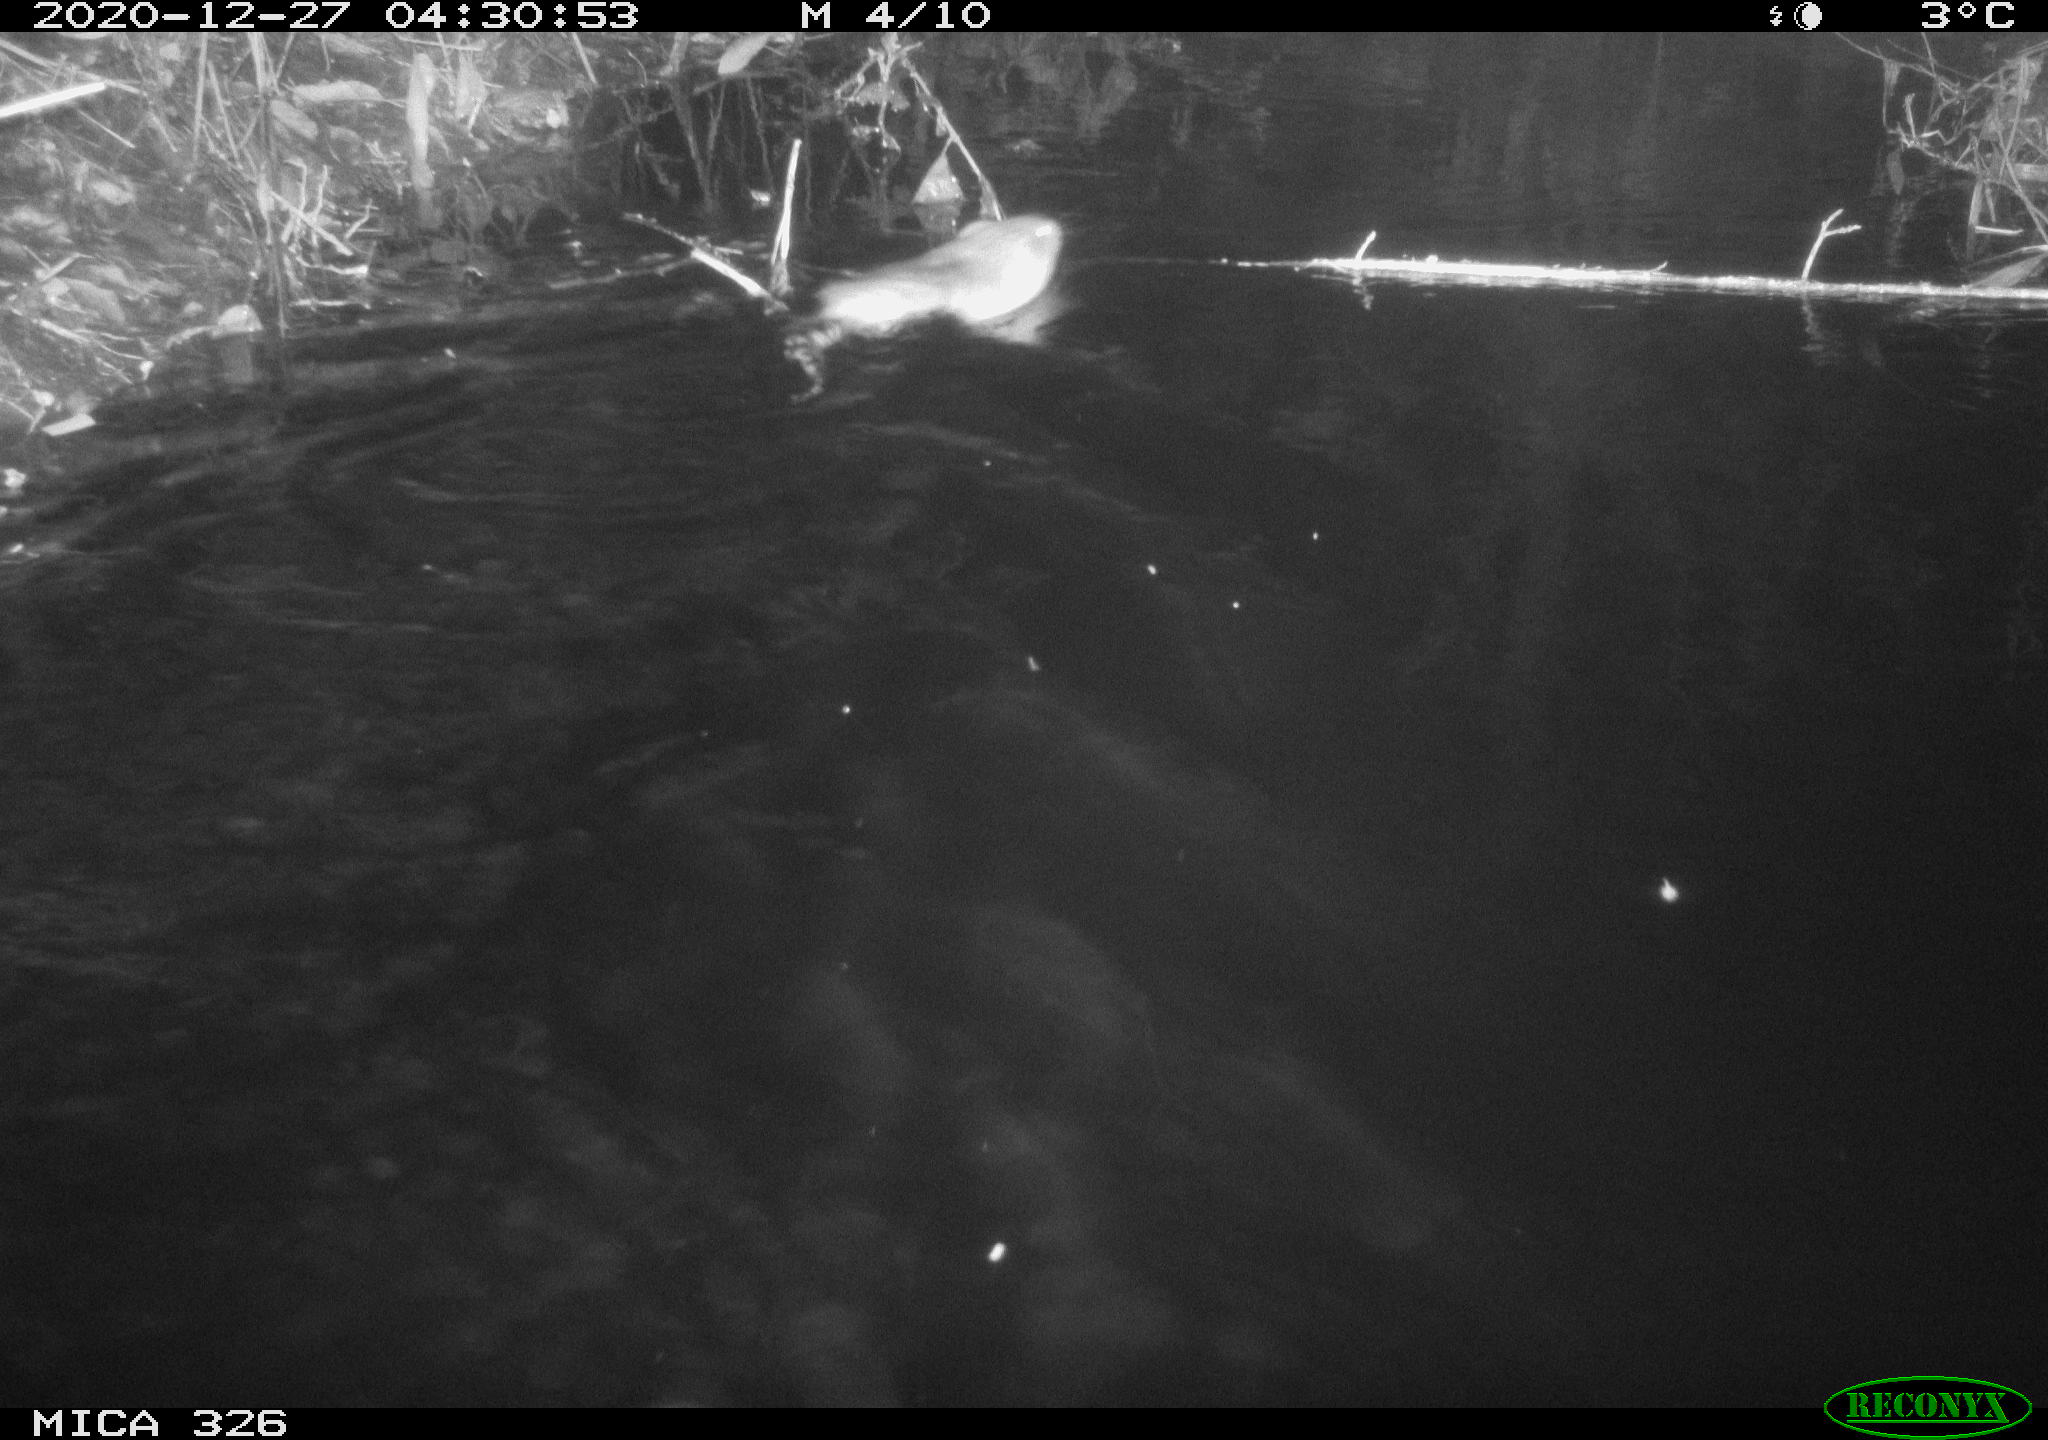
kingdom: Animalia
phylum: Chordata
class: Mammalia
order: Rodentia
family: Cricetidae
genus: Ondatra
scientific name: Ondatra zibethicus
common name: Muskrat
